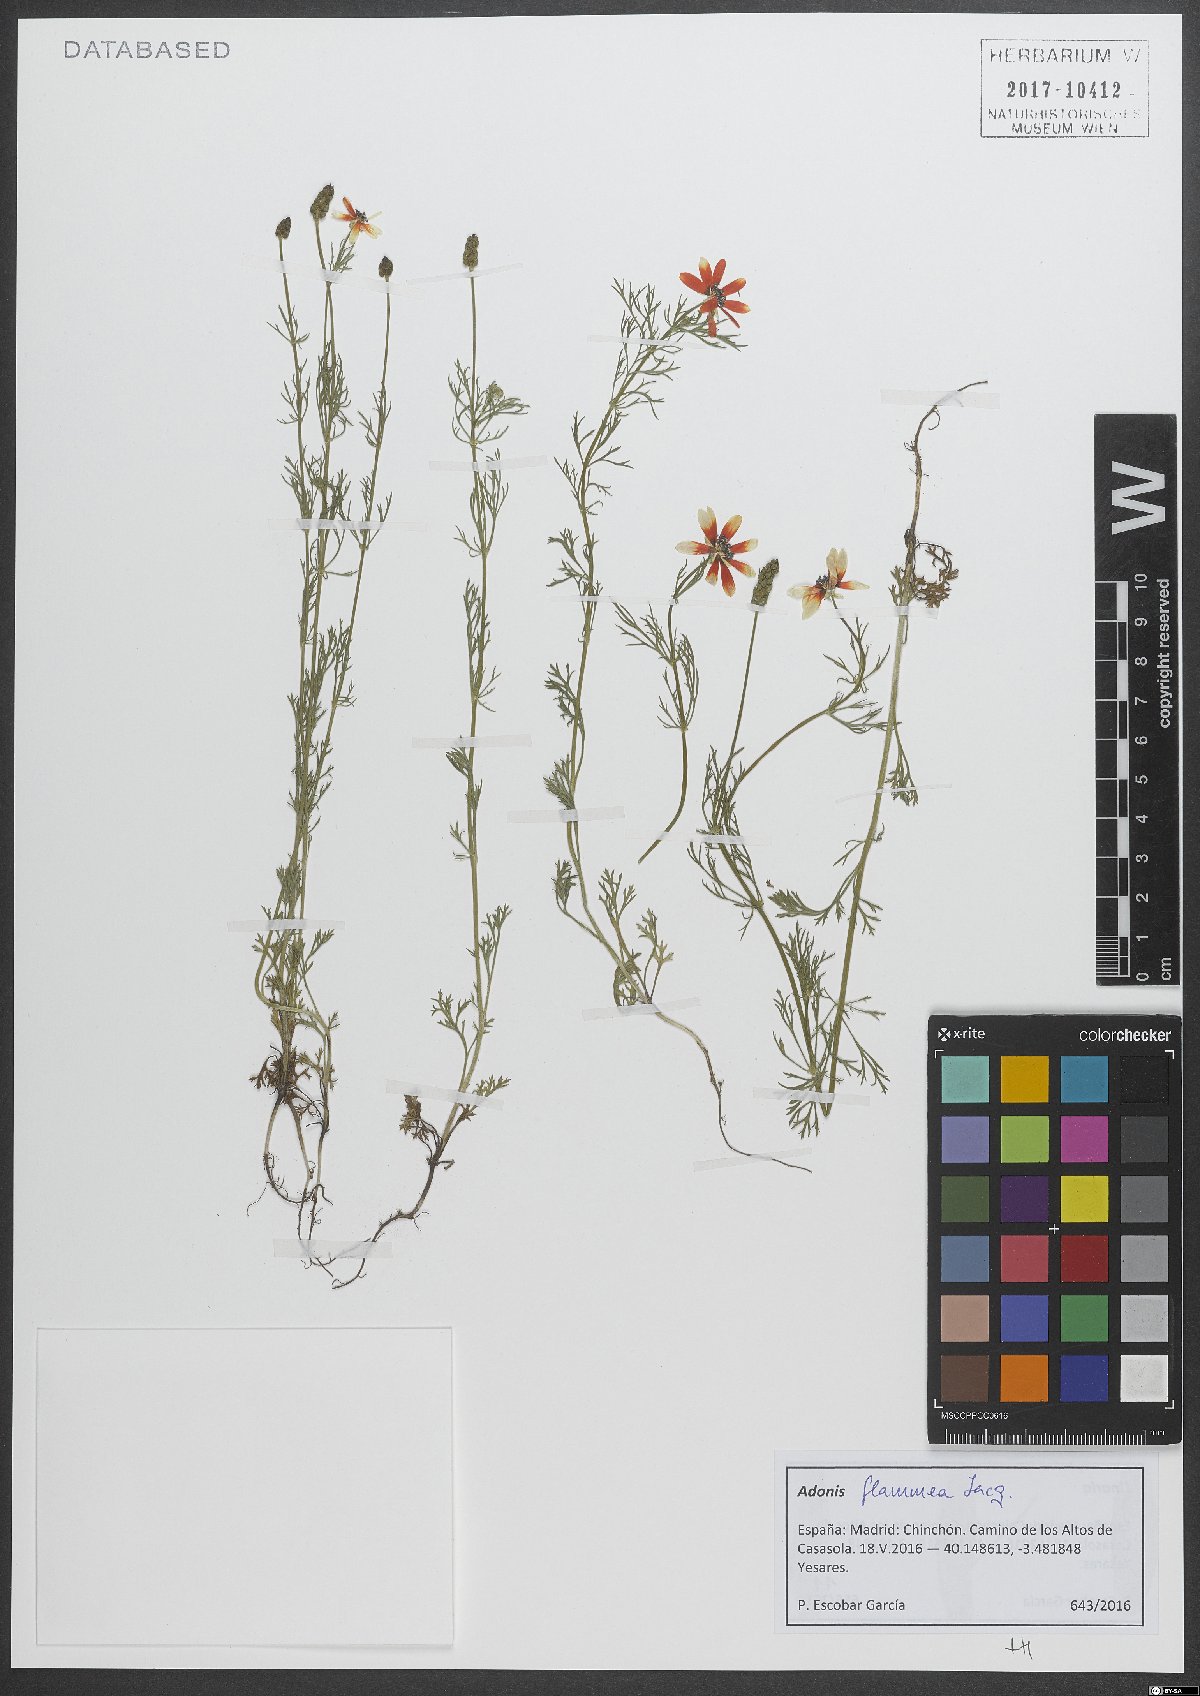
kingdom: Plantae
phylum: Tracheophyta
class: Magnoliopsida
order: Ranunculales
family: Ranunculaceae
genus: Adonis
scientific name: Adonis flammea
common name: Large pheasant's-eye
